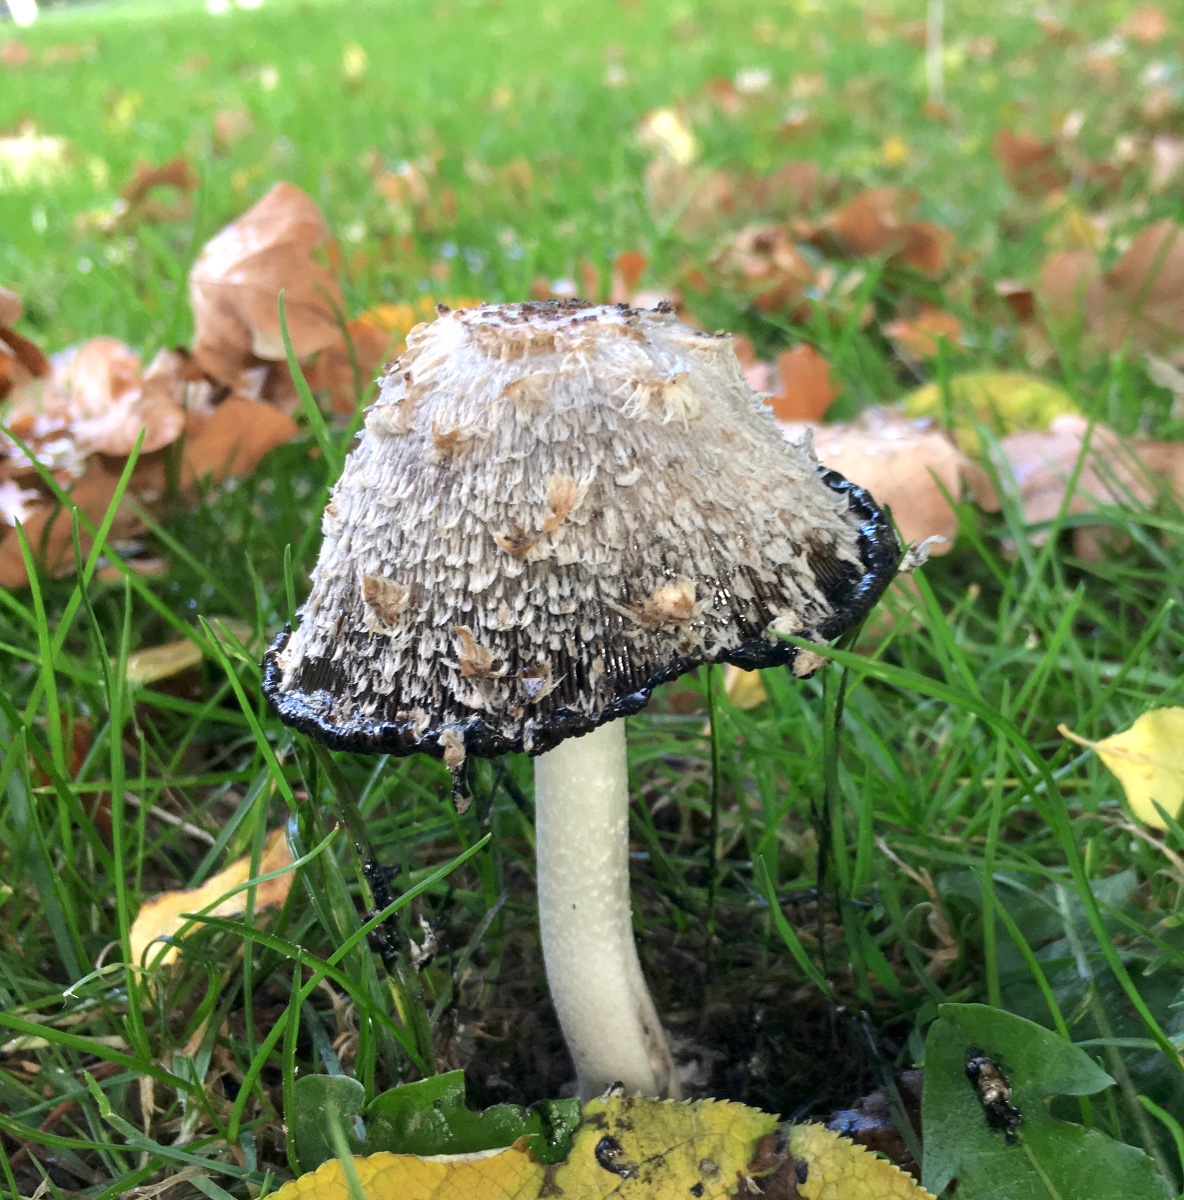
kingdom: Fungi
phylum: Basidiomycota
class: Agaricomycetes
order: Agaricales
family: Agaricaceae
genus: Coprinus
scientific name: Coprinus comatus
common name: stor parykhat
